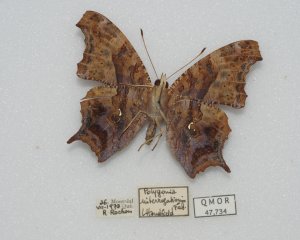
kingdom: Animalia
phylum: Arthropoda
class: Insecta
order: Lepidoptera
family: Nymphalidae
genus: Polygonia
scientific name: Polygonia interrogationis
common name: Question Mark
